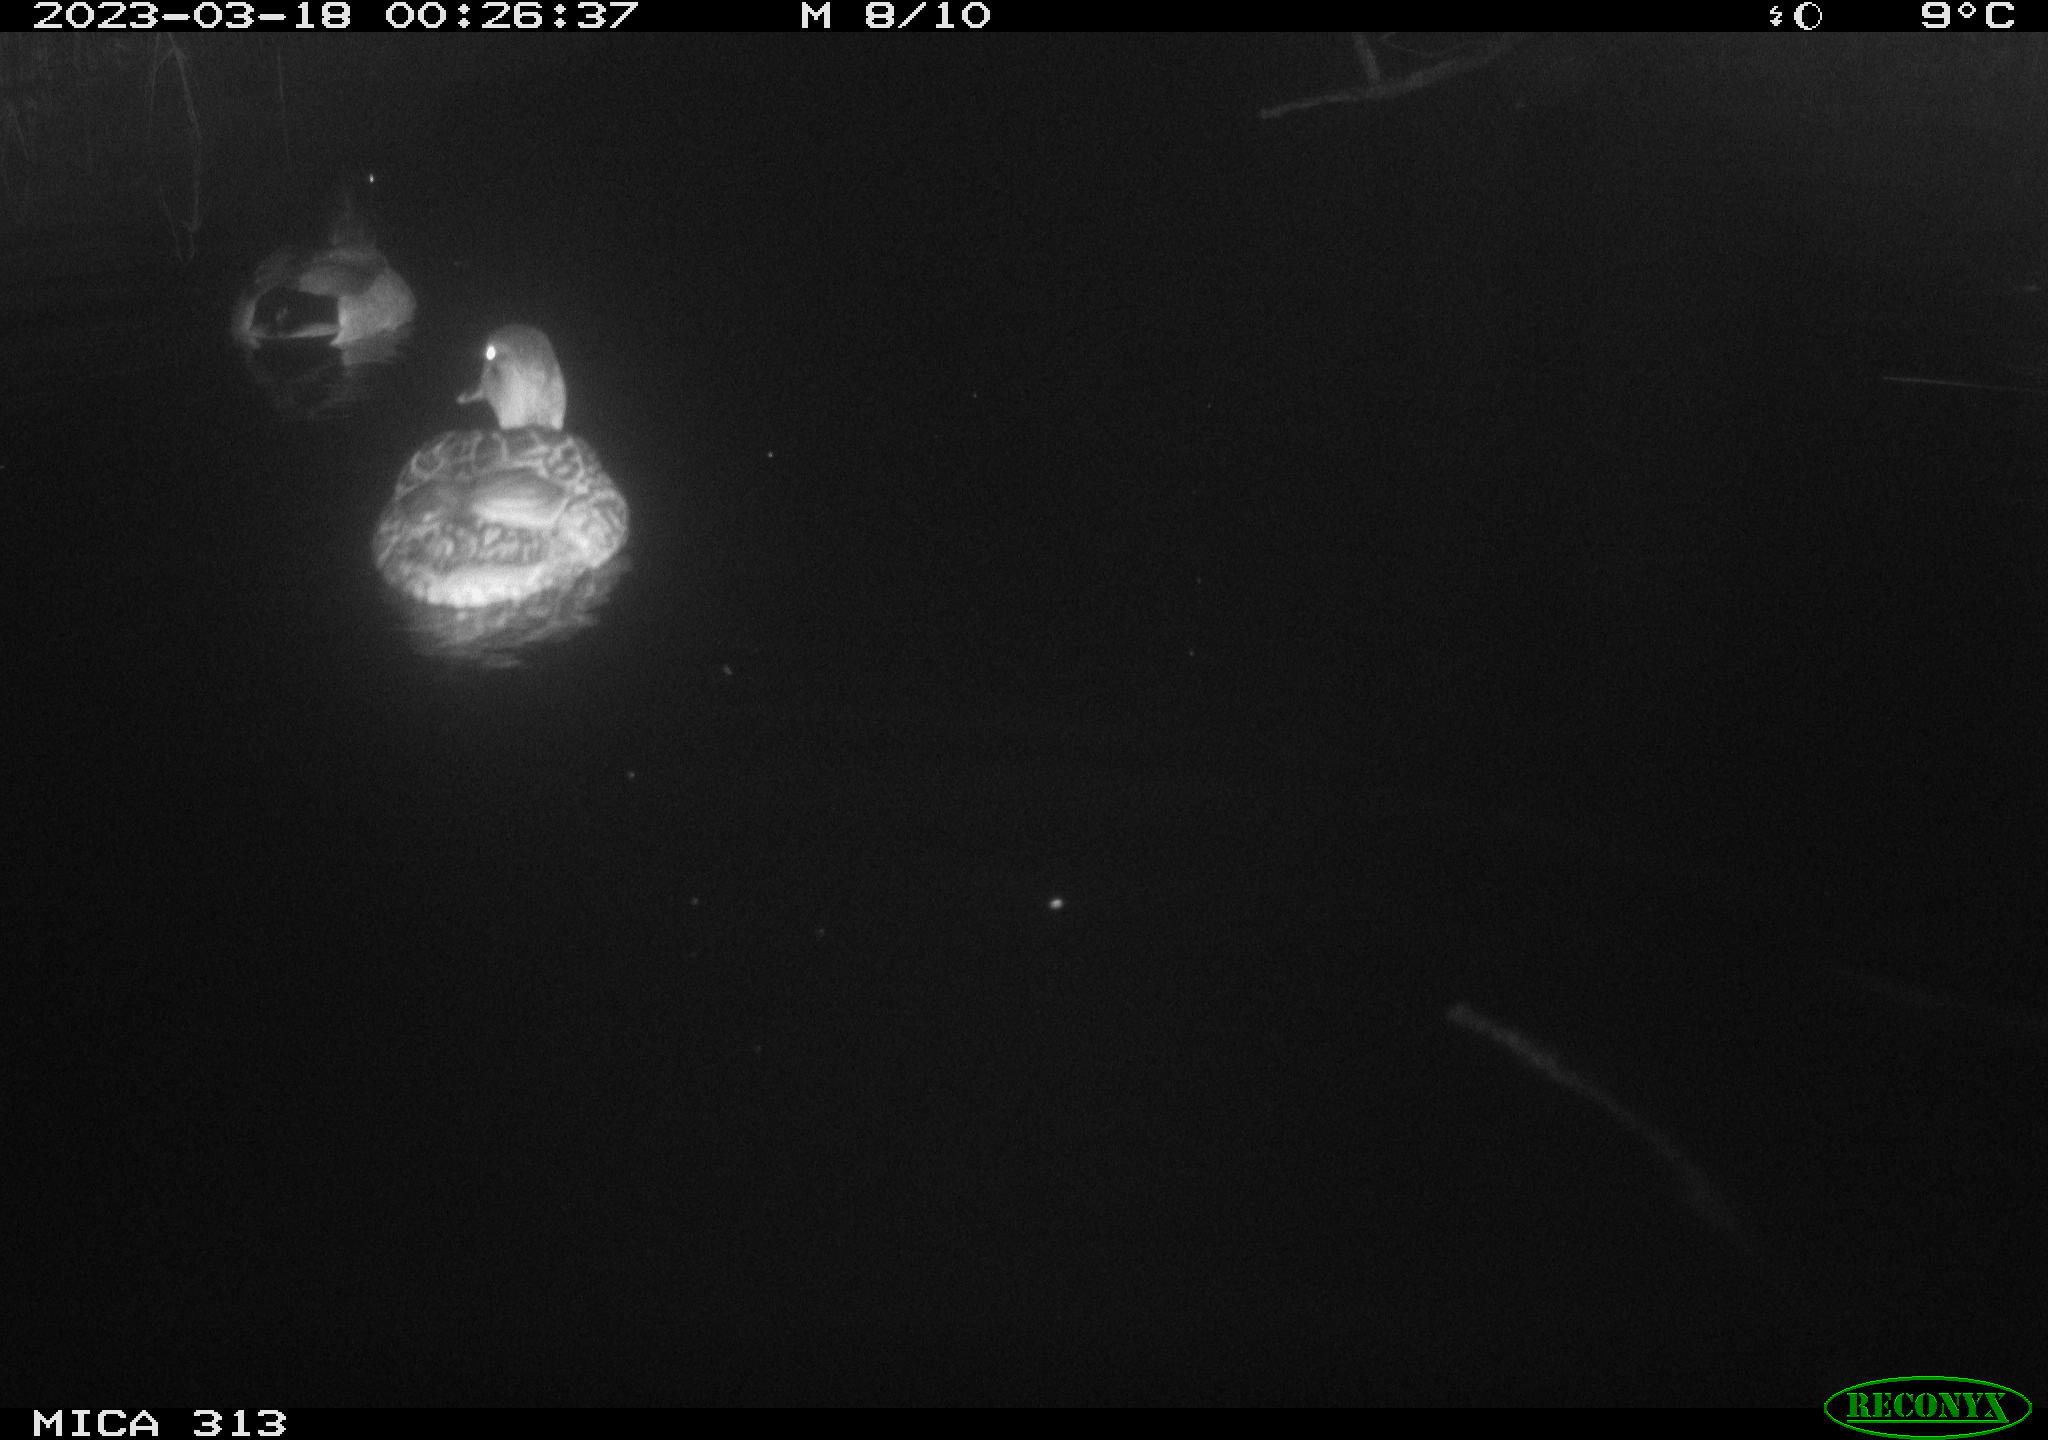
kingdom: Animalia
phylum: Chordata
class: Aves
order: Anseriformes
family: Anatidae
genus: Anas
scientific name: Anas
